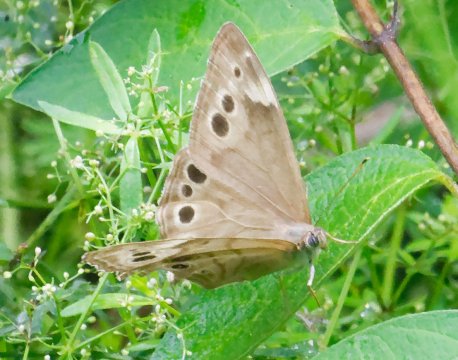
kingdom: Animalia
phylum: Arthropoda
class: Insecta
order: Lepidoptera
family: Nymphalidae
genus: Lethe
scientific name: Lethe anthedon
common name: Northern Pearly-Eye
